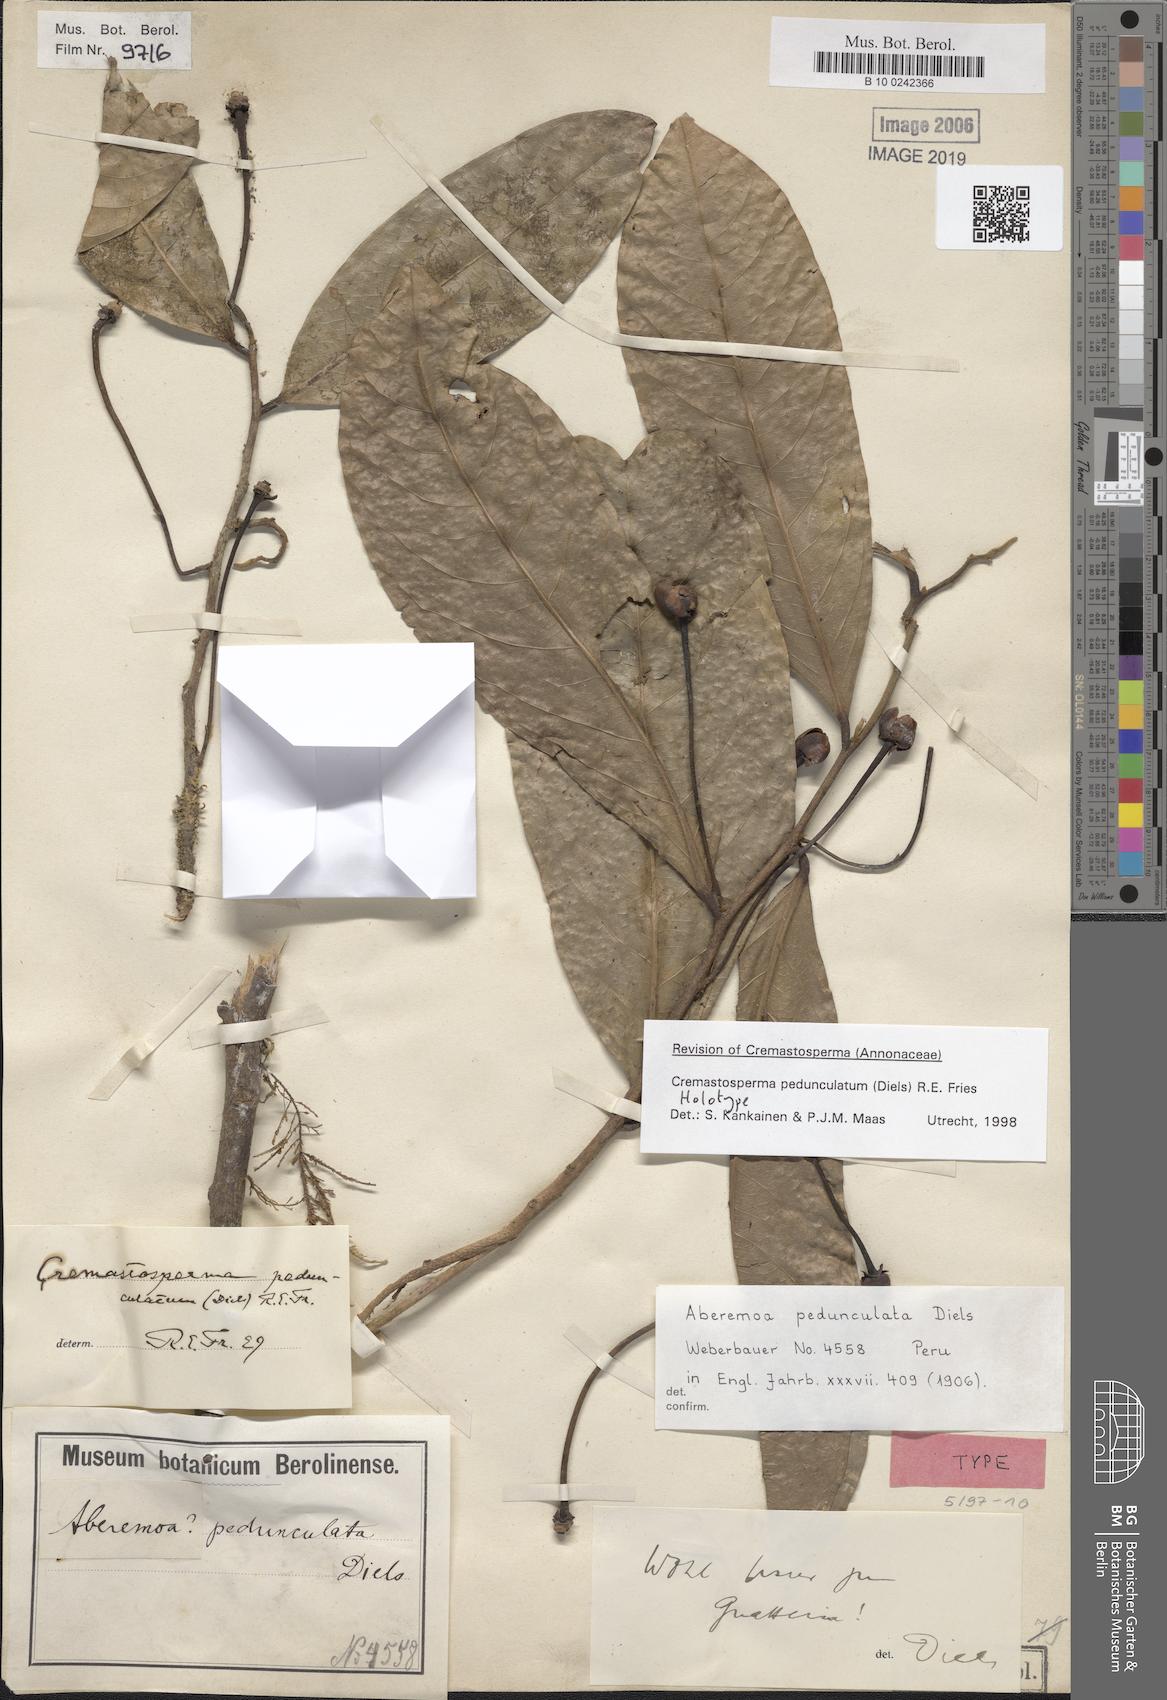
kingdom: Plantae
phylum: Tracheophyta
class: Magnoliopsida
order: Magnoliales
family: Annonaceae
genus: Cremastosperma
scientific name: Cremastosperma pedunculatum
